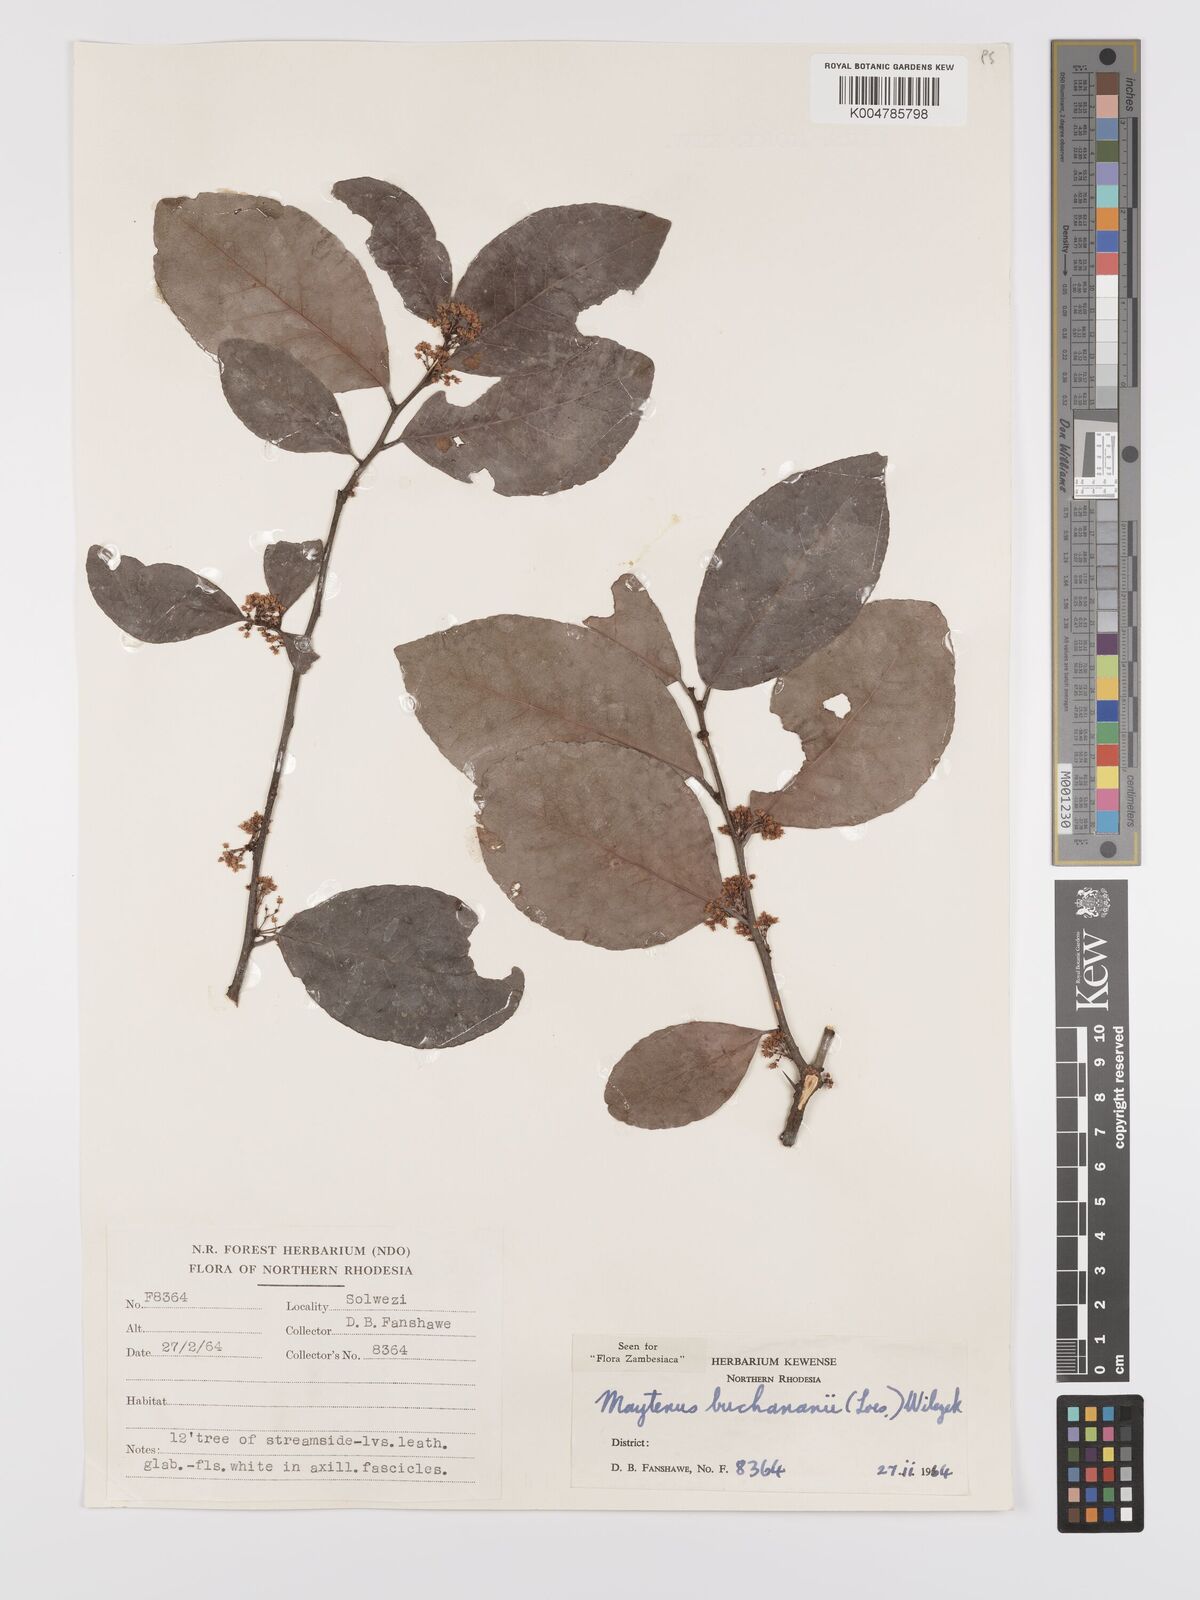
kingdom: Plantae
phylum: Tracheophyta
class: Magnoliopsida
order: Celastrales
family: Celastraceae
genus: Gymnosporia
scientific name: Gymnosporia buchananii
